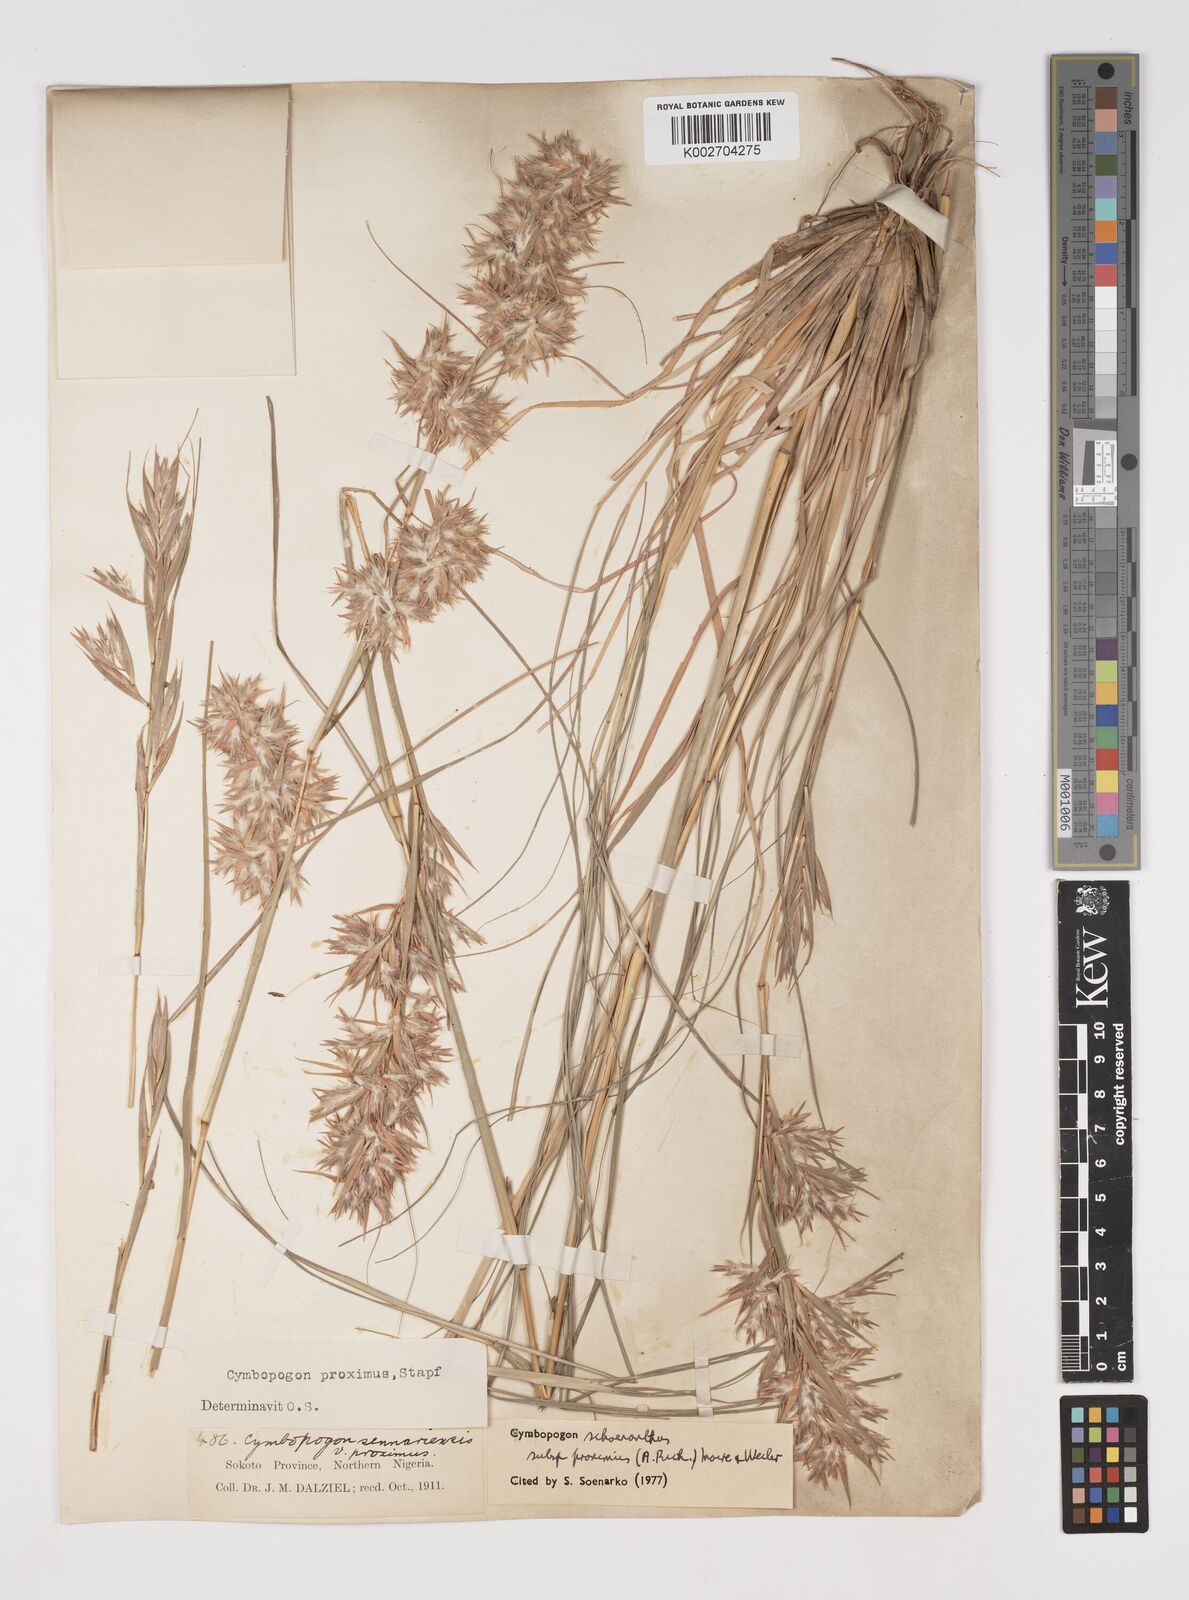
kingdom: Plantae
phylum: Tracheophyta
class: Liliopsida
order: Poales
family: Poaceae
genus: Cymbopogon
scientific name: Cymbopogon schoenanthus
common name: Geranium grass
